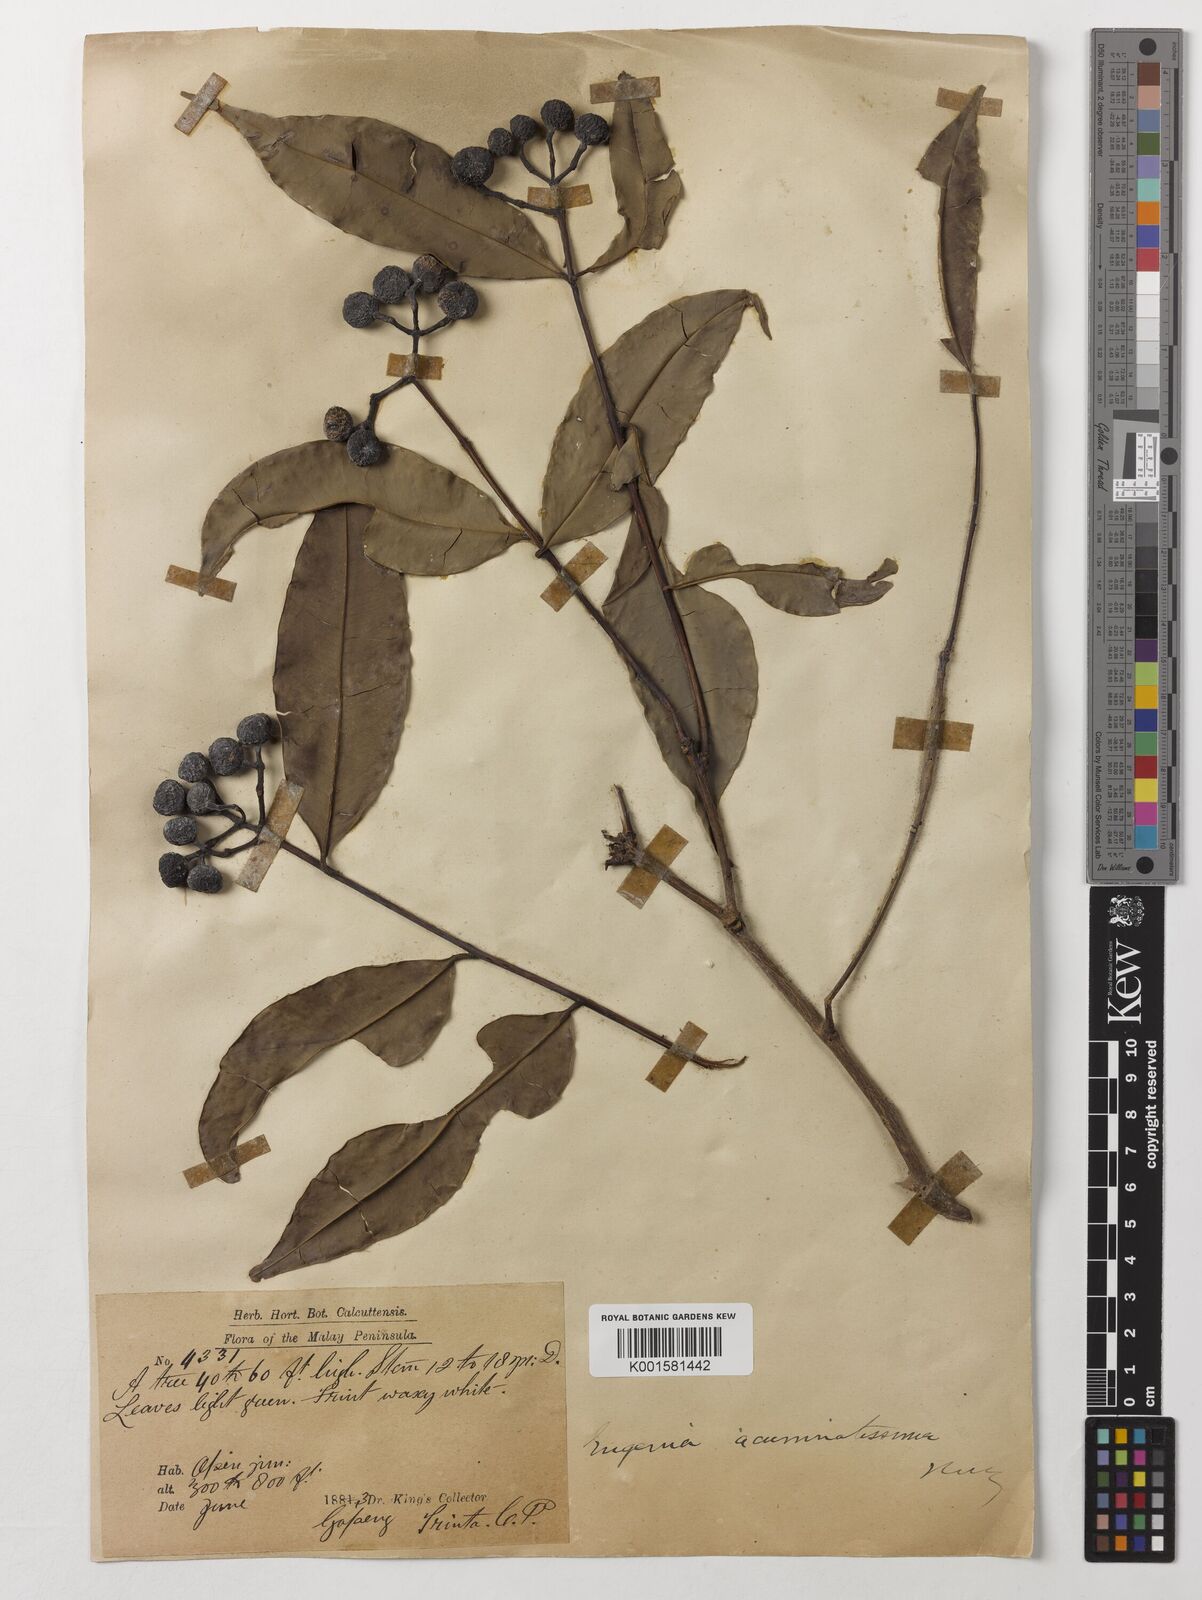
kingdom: Plantae
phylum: Tracheophyta
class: Magnoliopsida
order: Myrtales
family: Myrtaceae
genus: Eugenia
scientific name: Eugenia biflora
